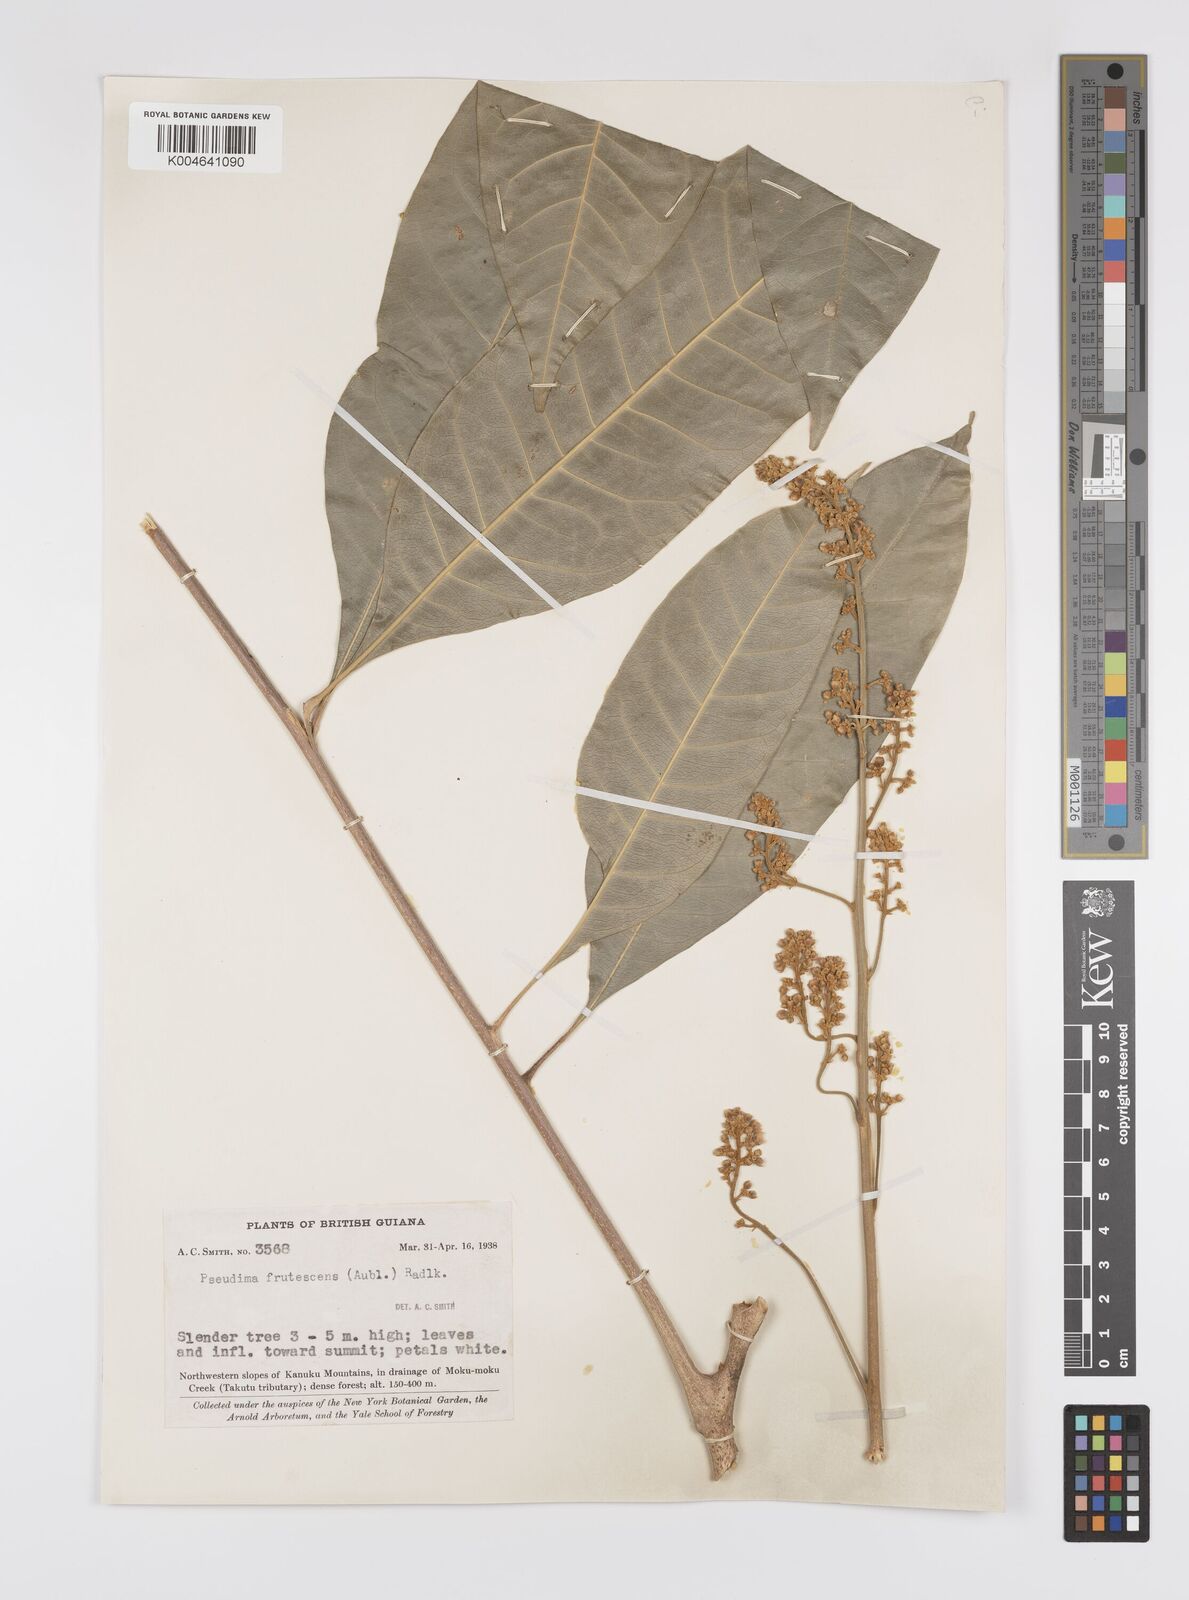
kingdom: Plantae
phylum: Tracheophyta
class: Magnoliopsida
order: Sapindales
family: Sapindaceae
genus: Pseudima
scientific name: Pseudima frutescens
